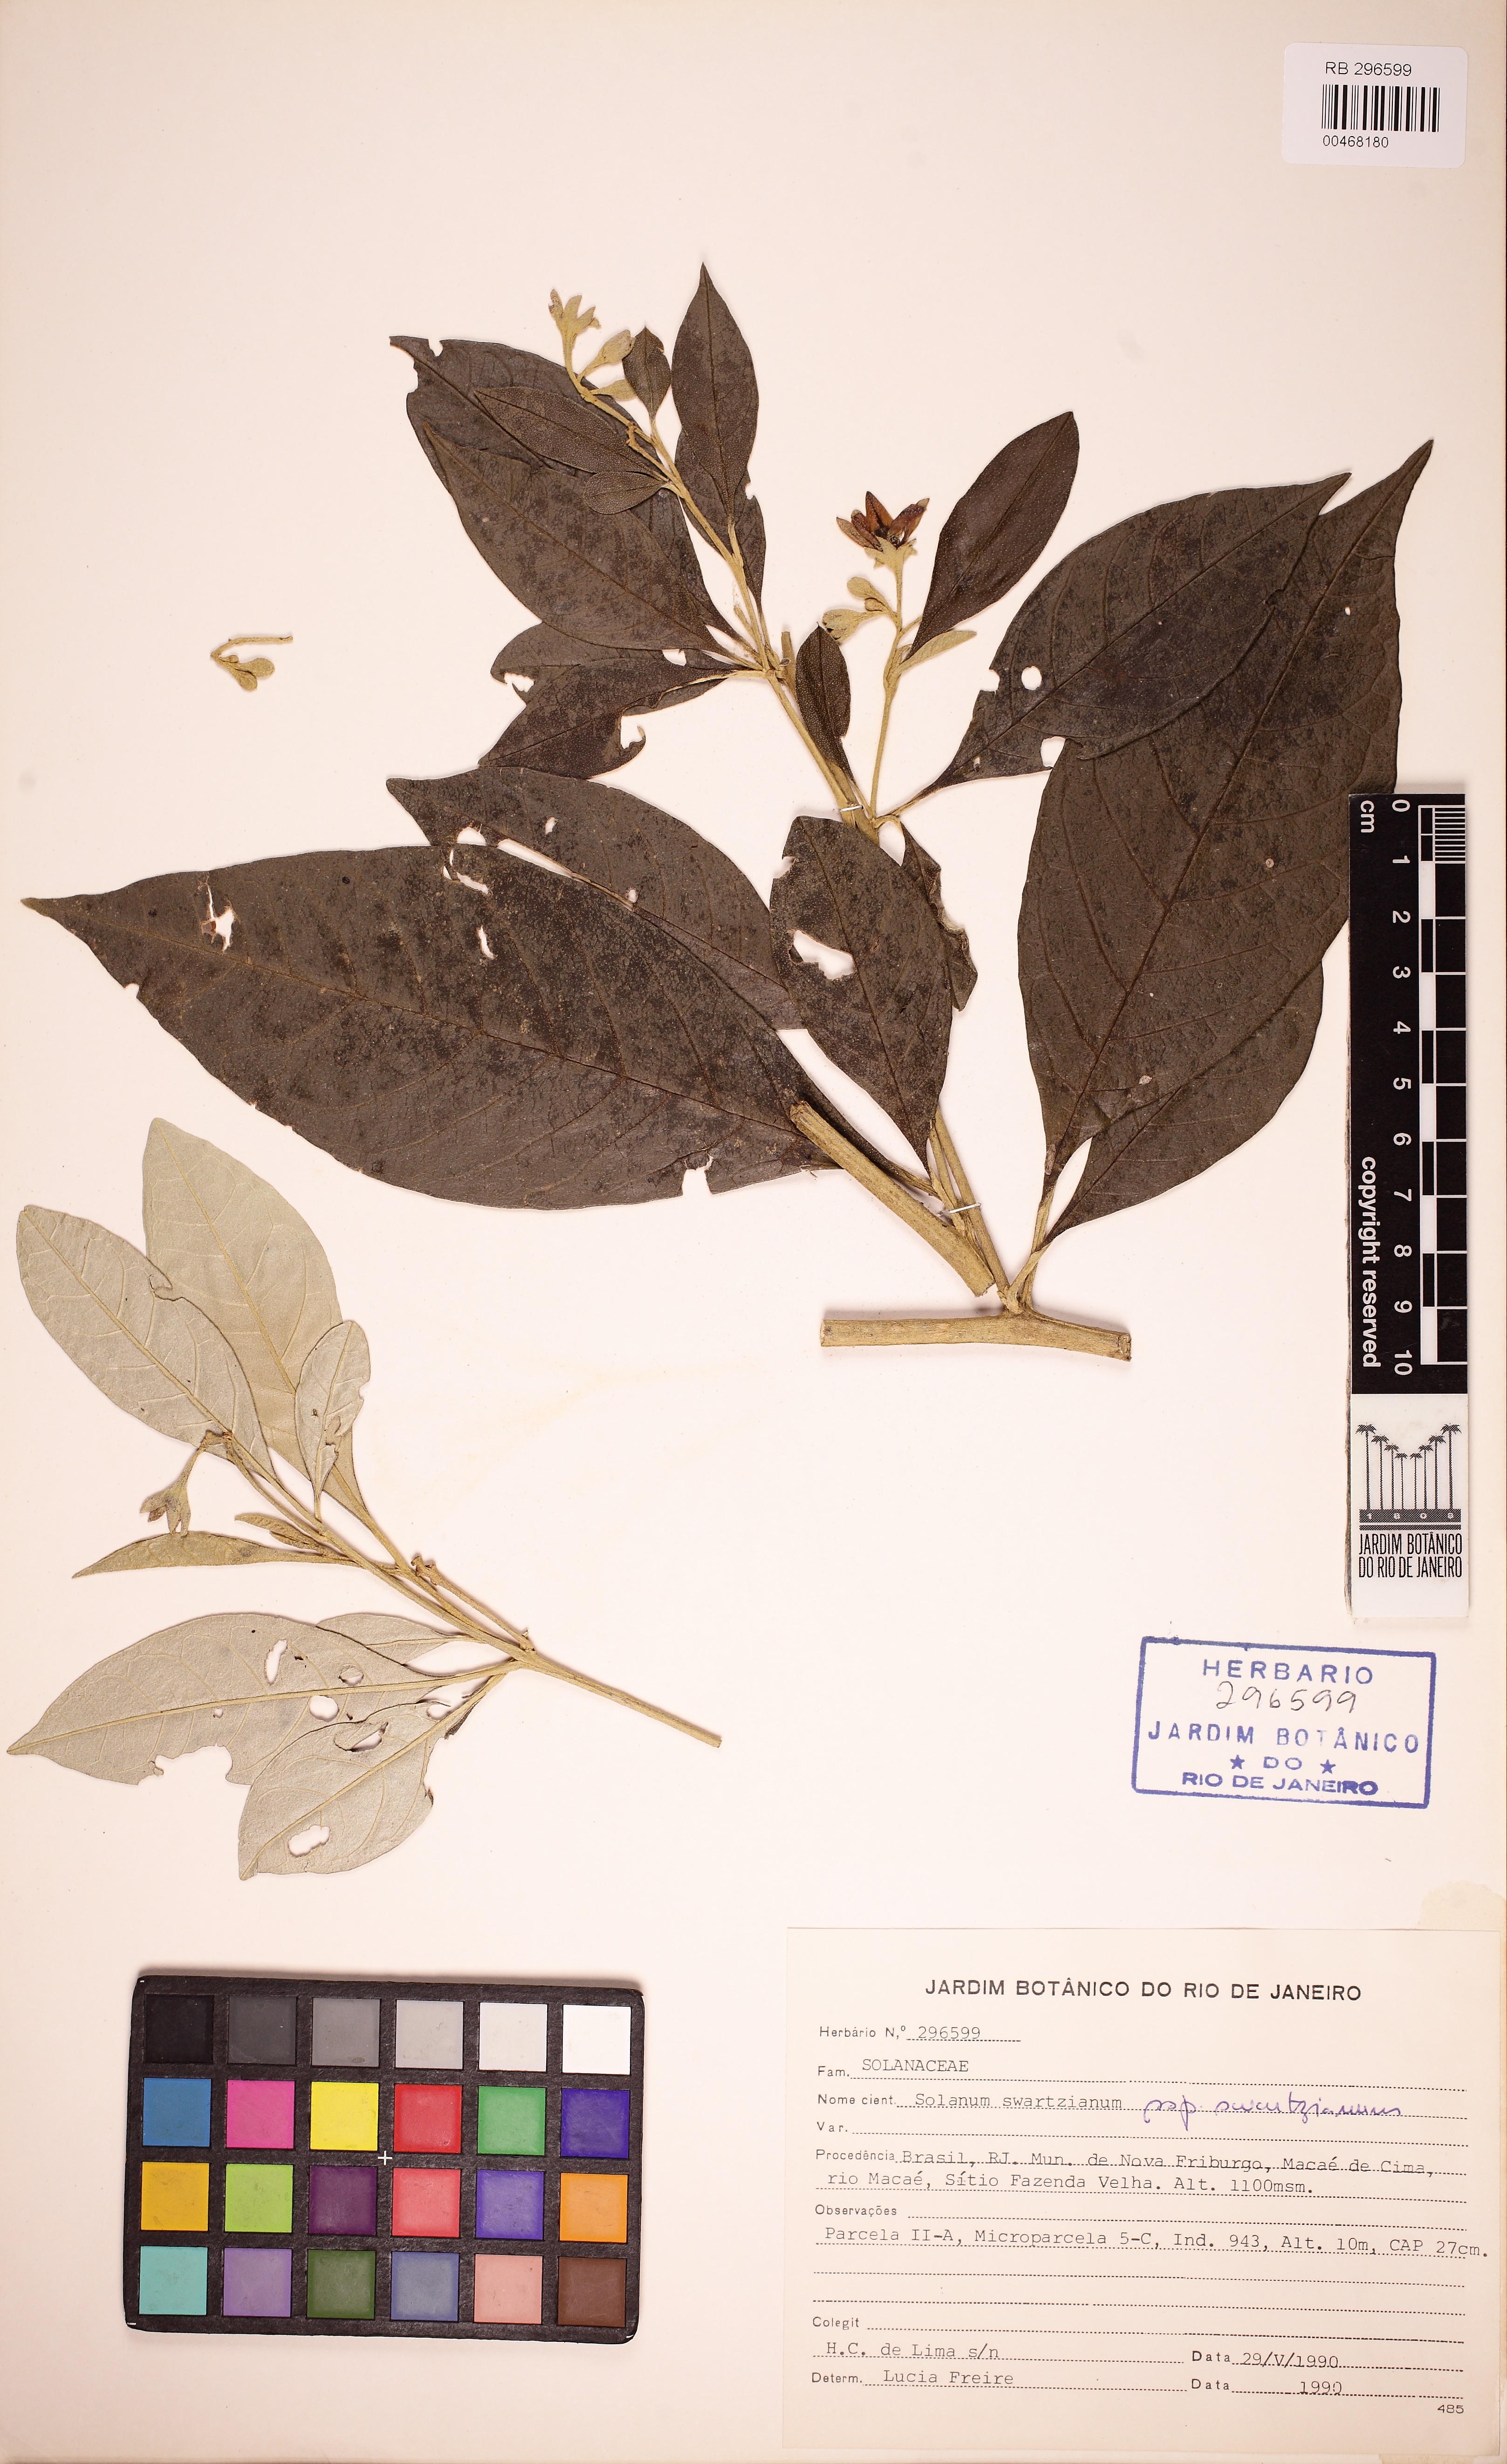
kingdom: Plantae
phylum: Tracheophyta
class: Magnoliopsida
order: Solanales
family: Solanaceae
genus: Solanum
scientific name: Solanum swartzianum
